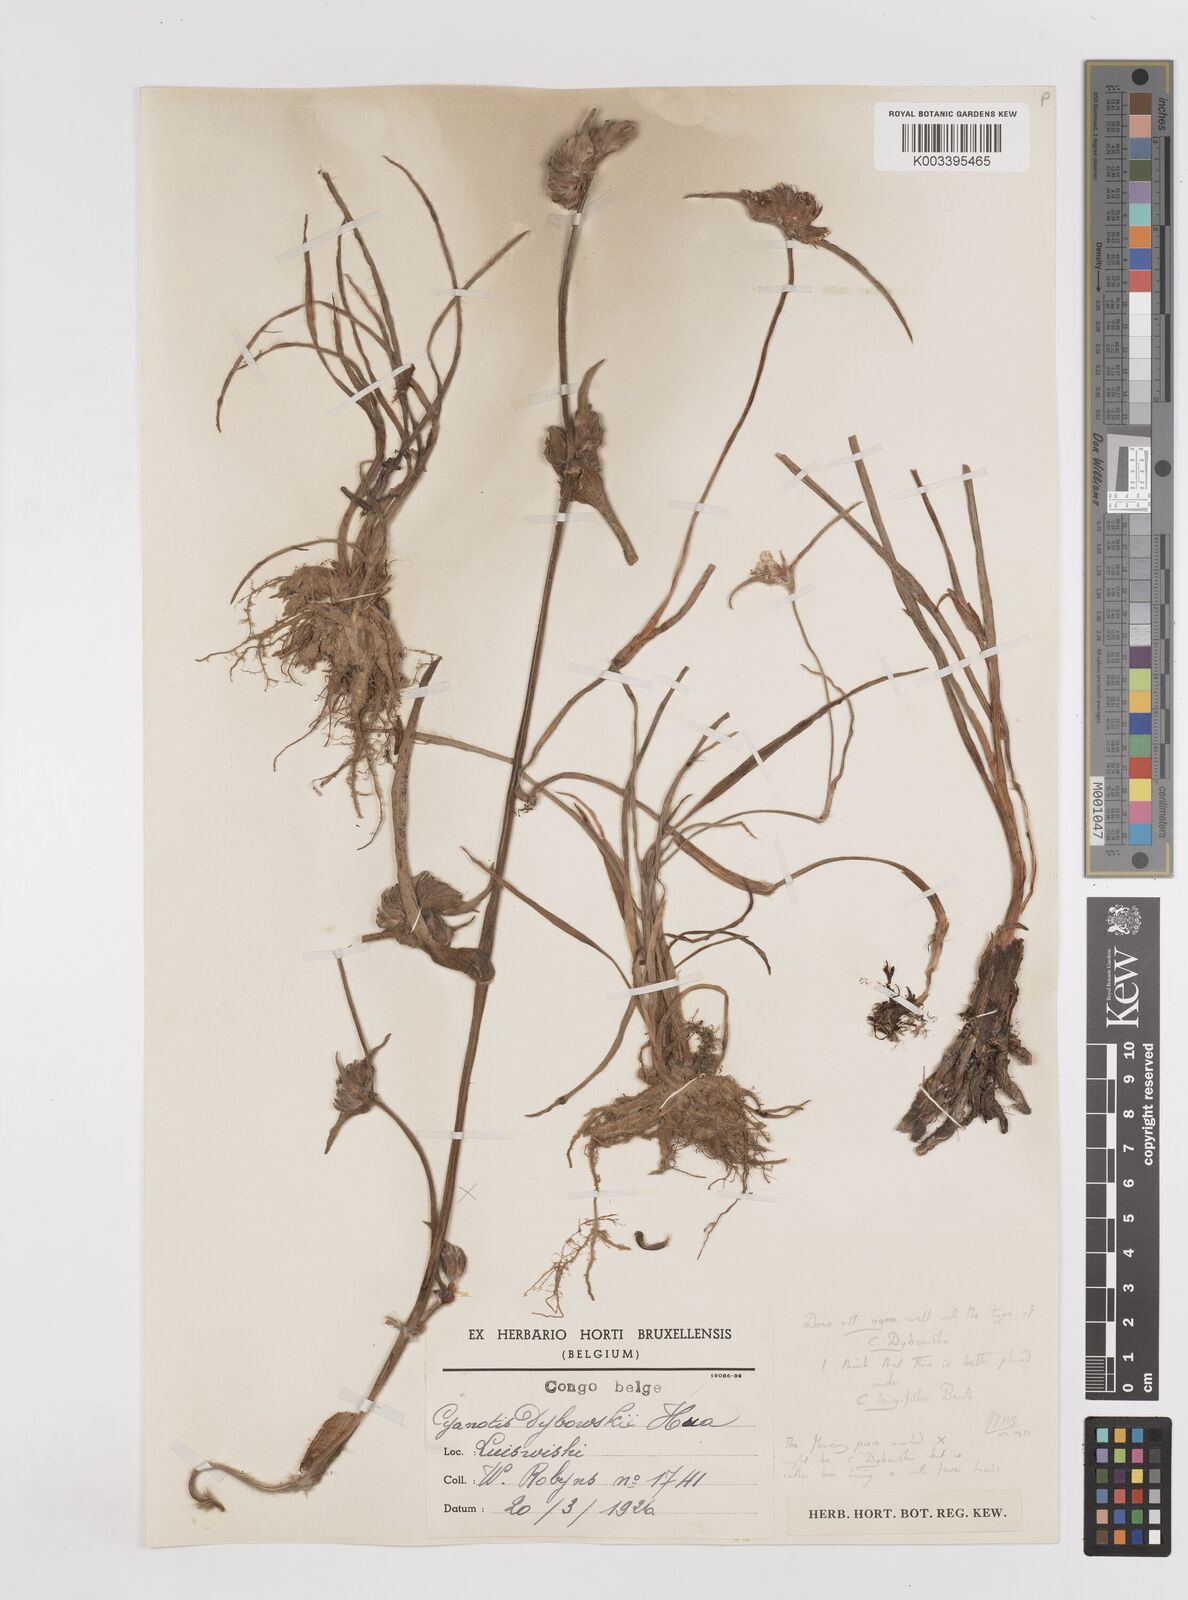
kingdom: Plantae
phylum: Tracheophyta
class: Liliopsida
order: Commelinales
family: Commelinaceae
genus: Cyanotis
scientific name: Cyanotis longifolia
